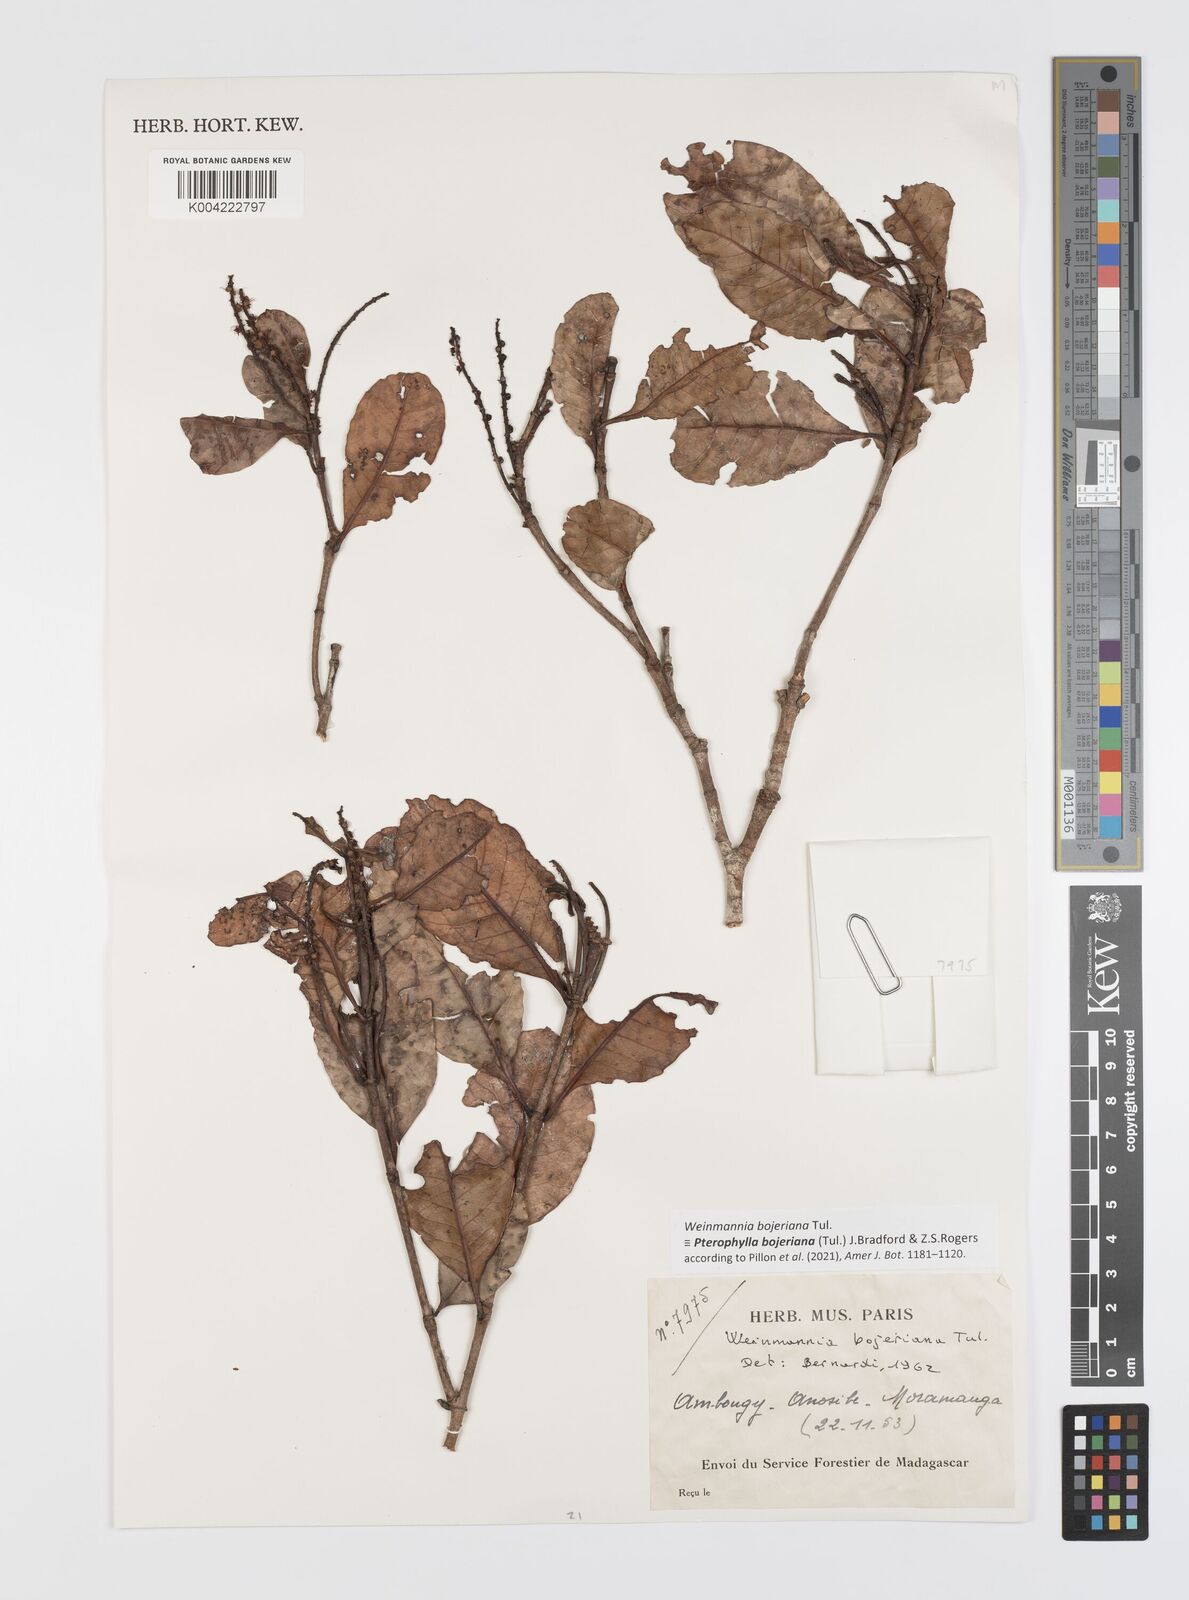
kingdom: Plantae
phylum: Tracheophyta
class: Magnoliopsida
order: Oxalidales
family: Cunoniaceae
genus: Pterophylla
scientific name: Pterophylla
